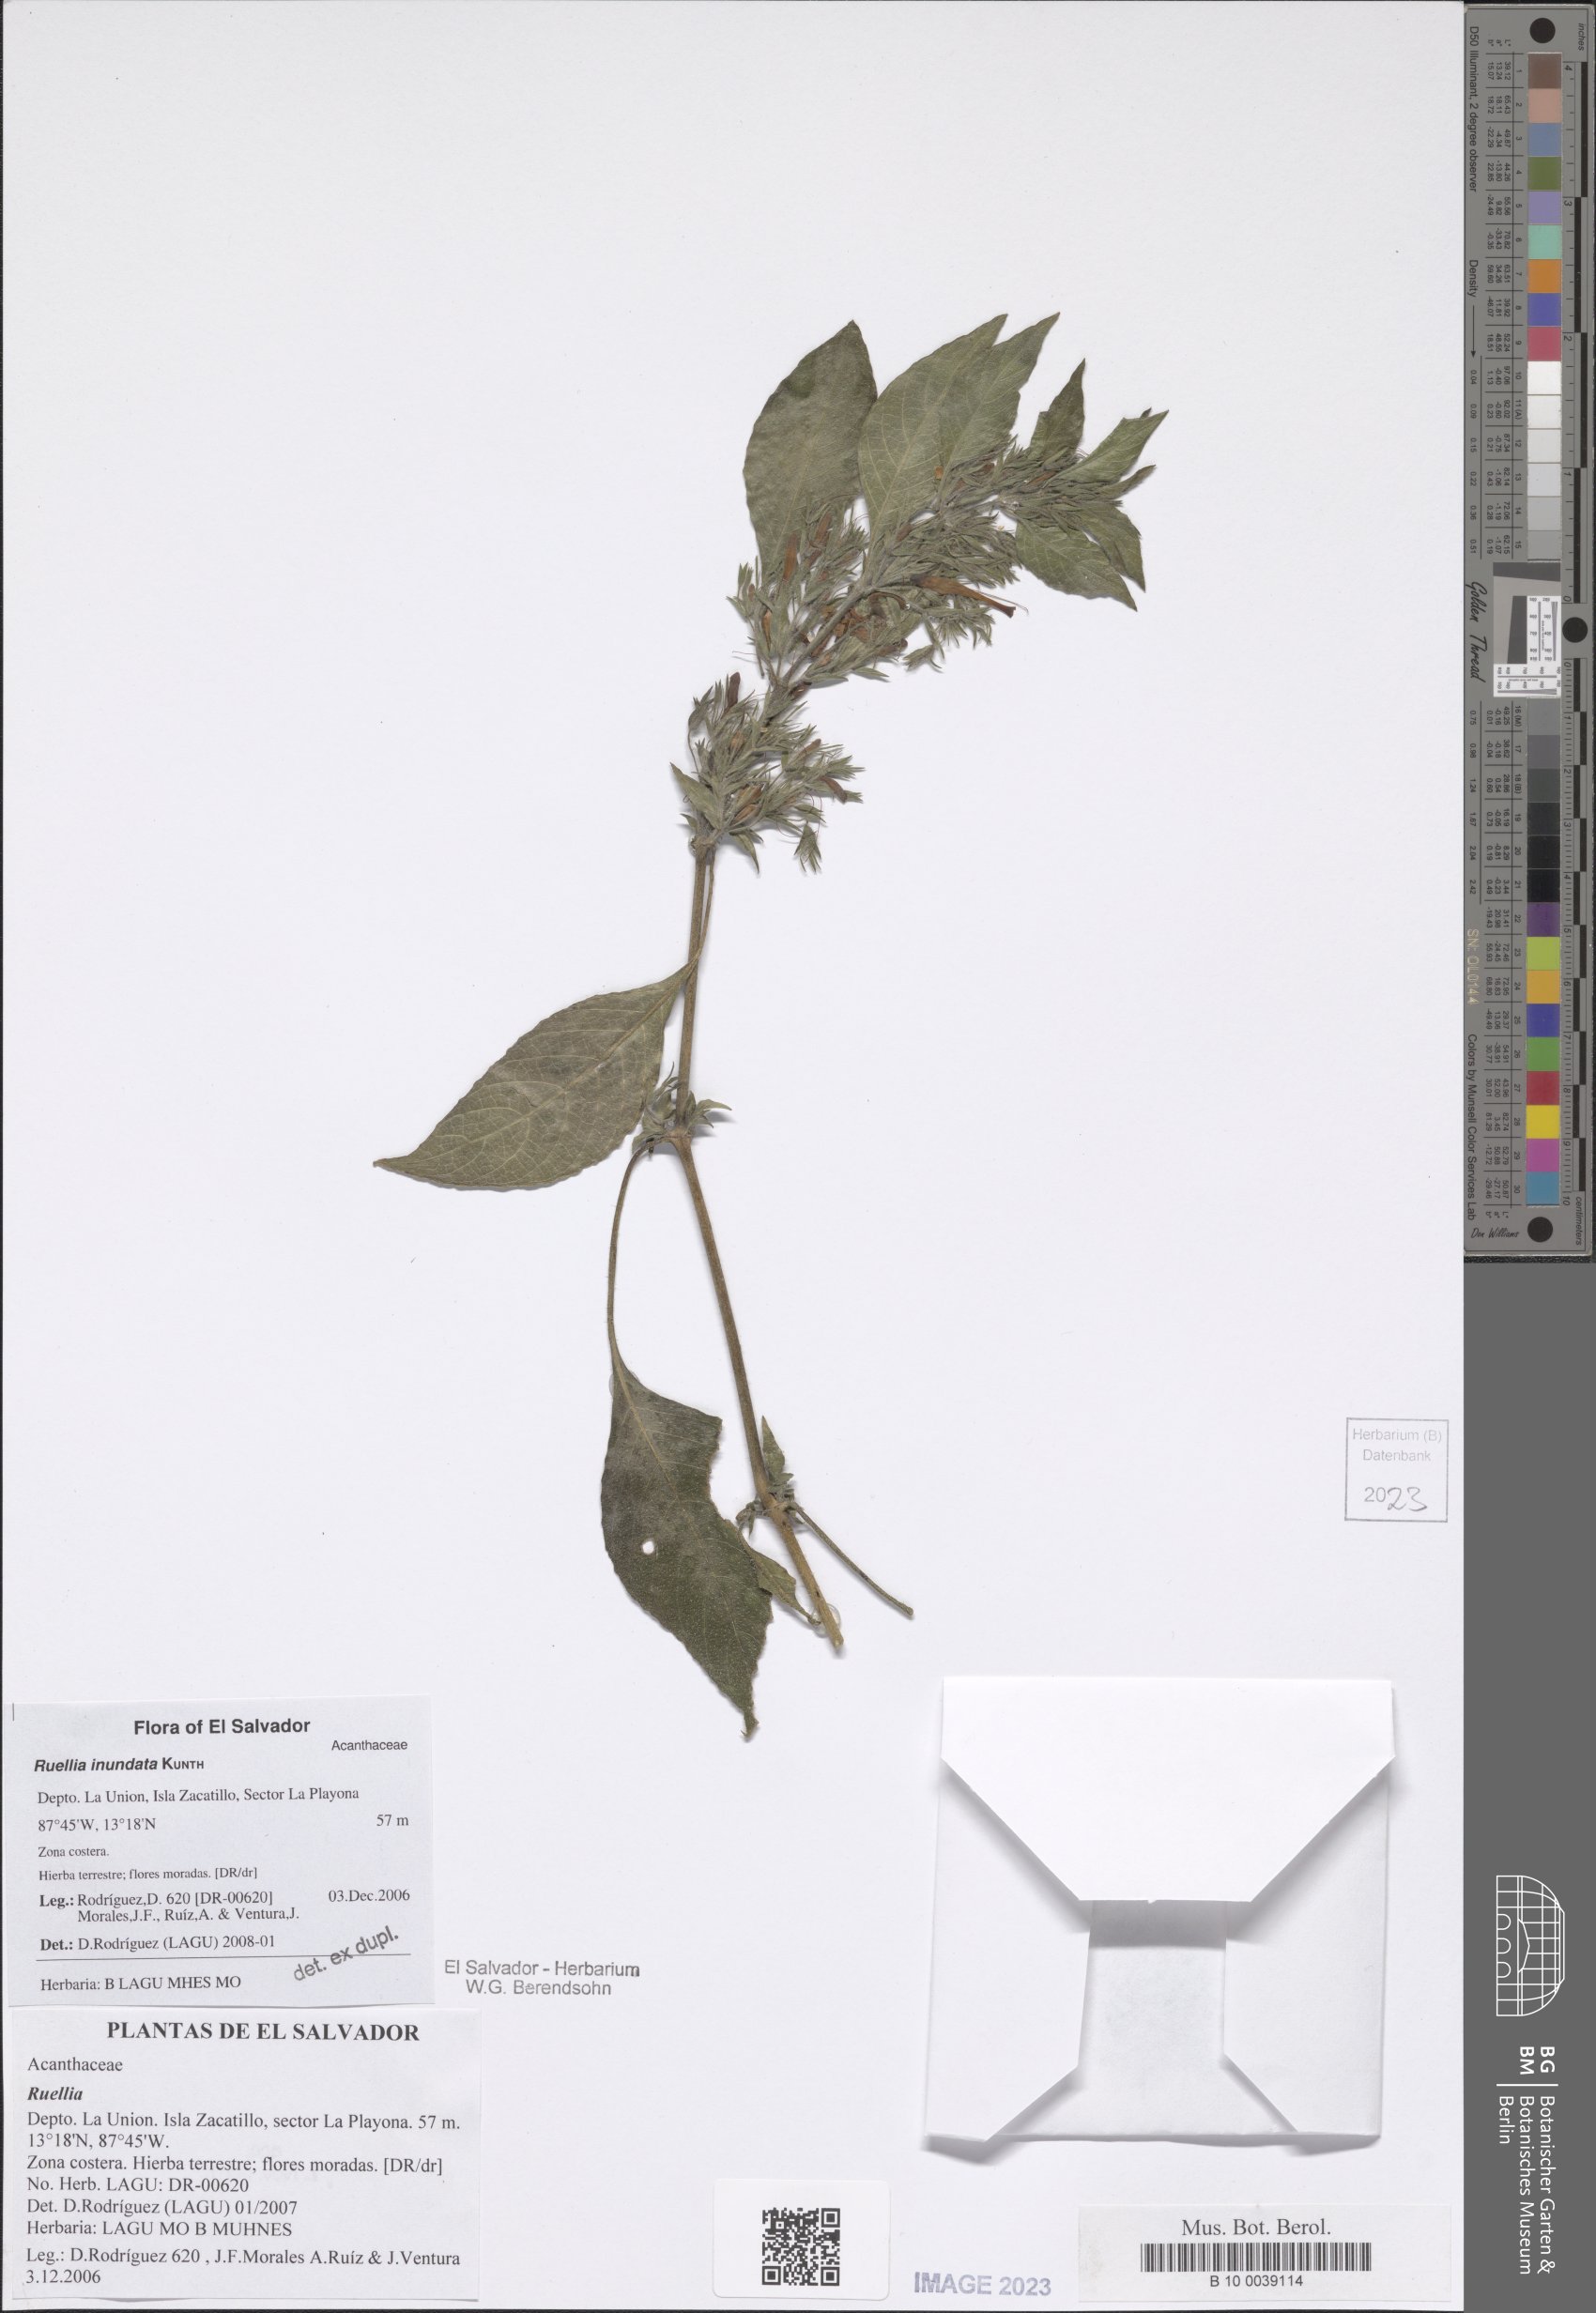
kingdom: Plantae
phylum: Tracheophyta
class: Magnoliopsida
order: Lamiales
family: Acanthaceae
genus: Ruellia
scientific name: Ruellia inundata
